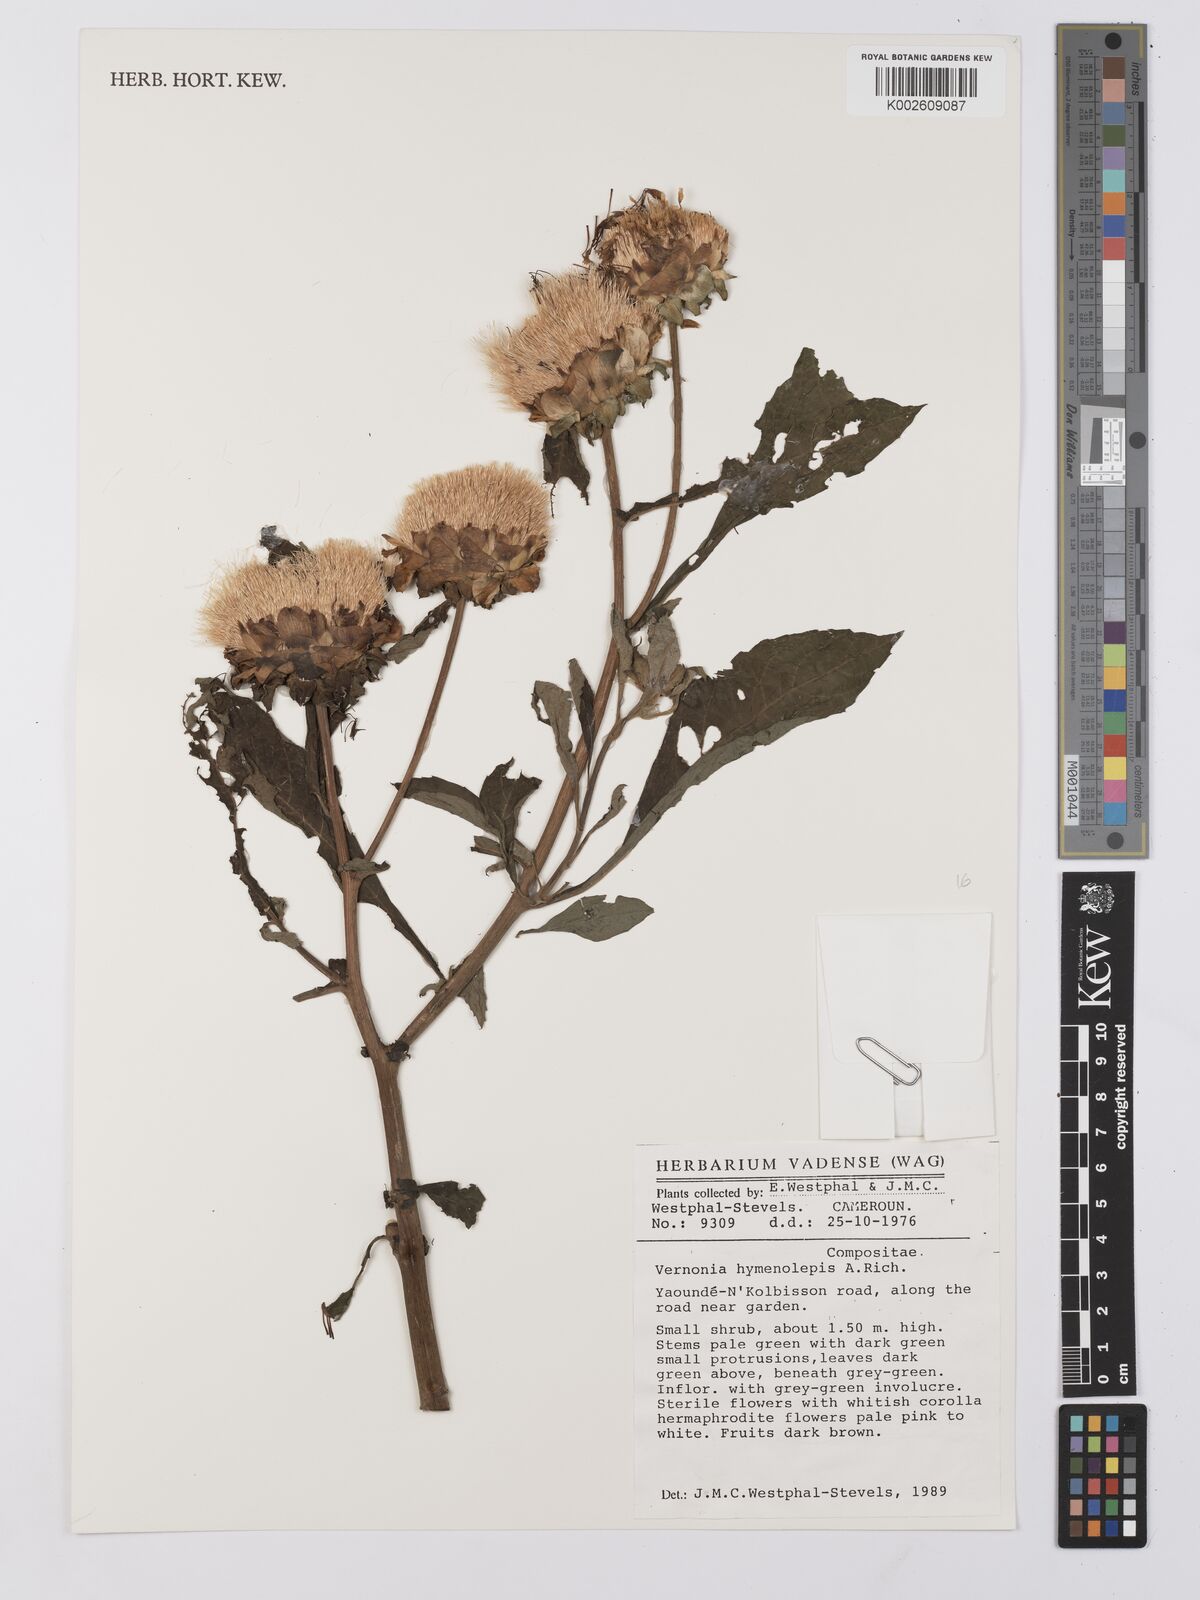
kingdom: Plantae
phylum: Tracheophyta
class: Magnoliopsida
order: Asterales
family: Asteraceae
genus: Baccharoides
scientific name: Baccharoides hymenolepis
